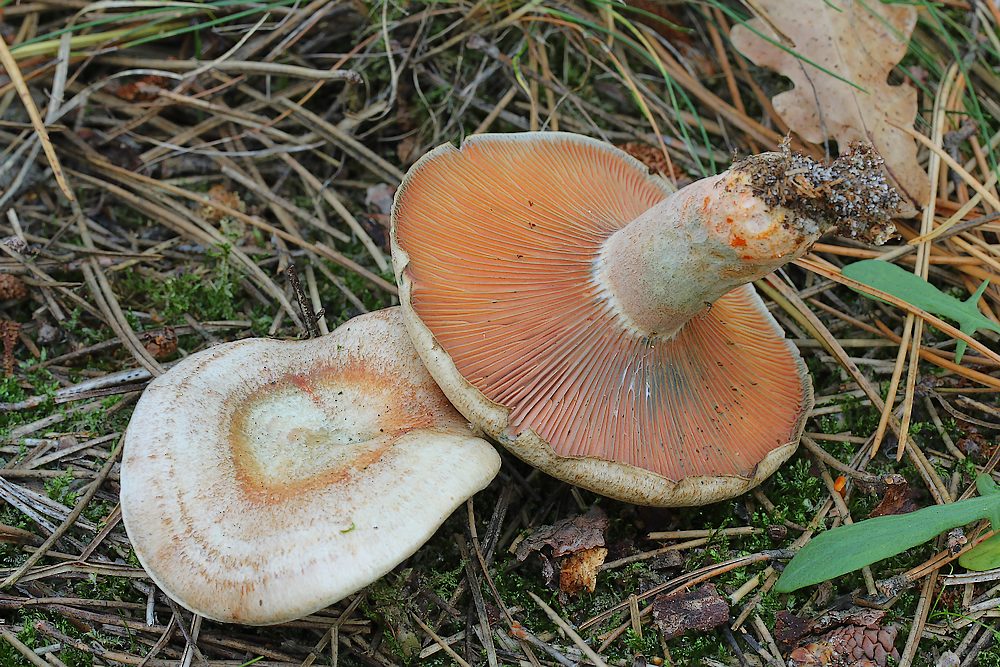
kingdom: Fungi
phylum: Basidiomycota
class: Agaricomycetes
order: Russulales
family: Russulaceae
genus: Lactarius
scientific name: Lactarius quieticolor
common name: tvefarvet mælkehat
